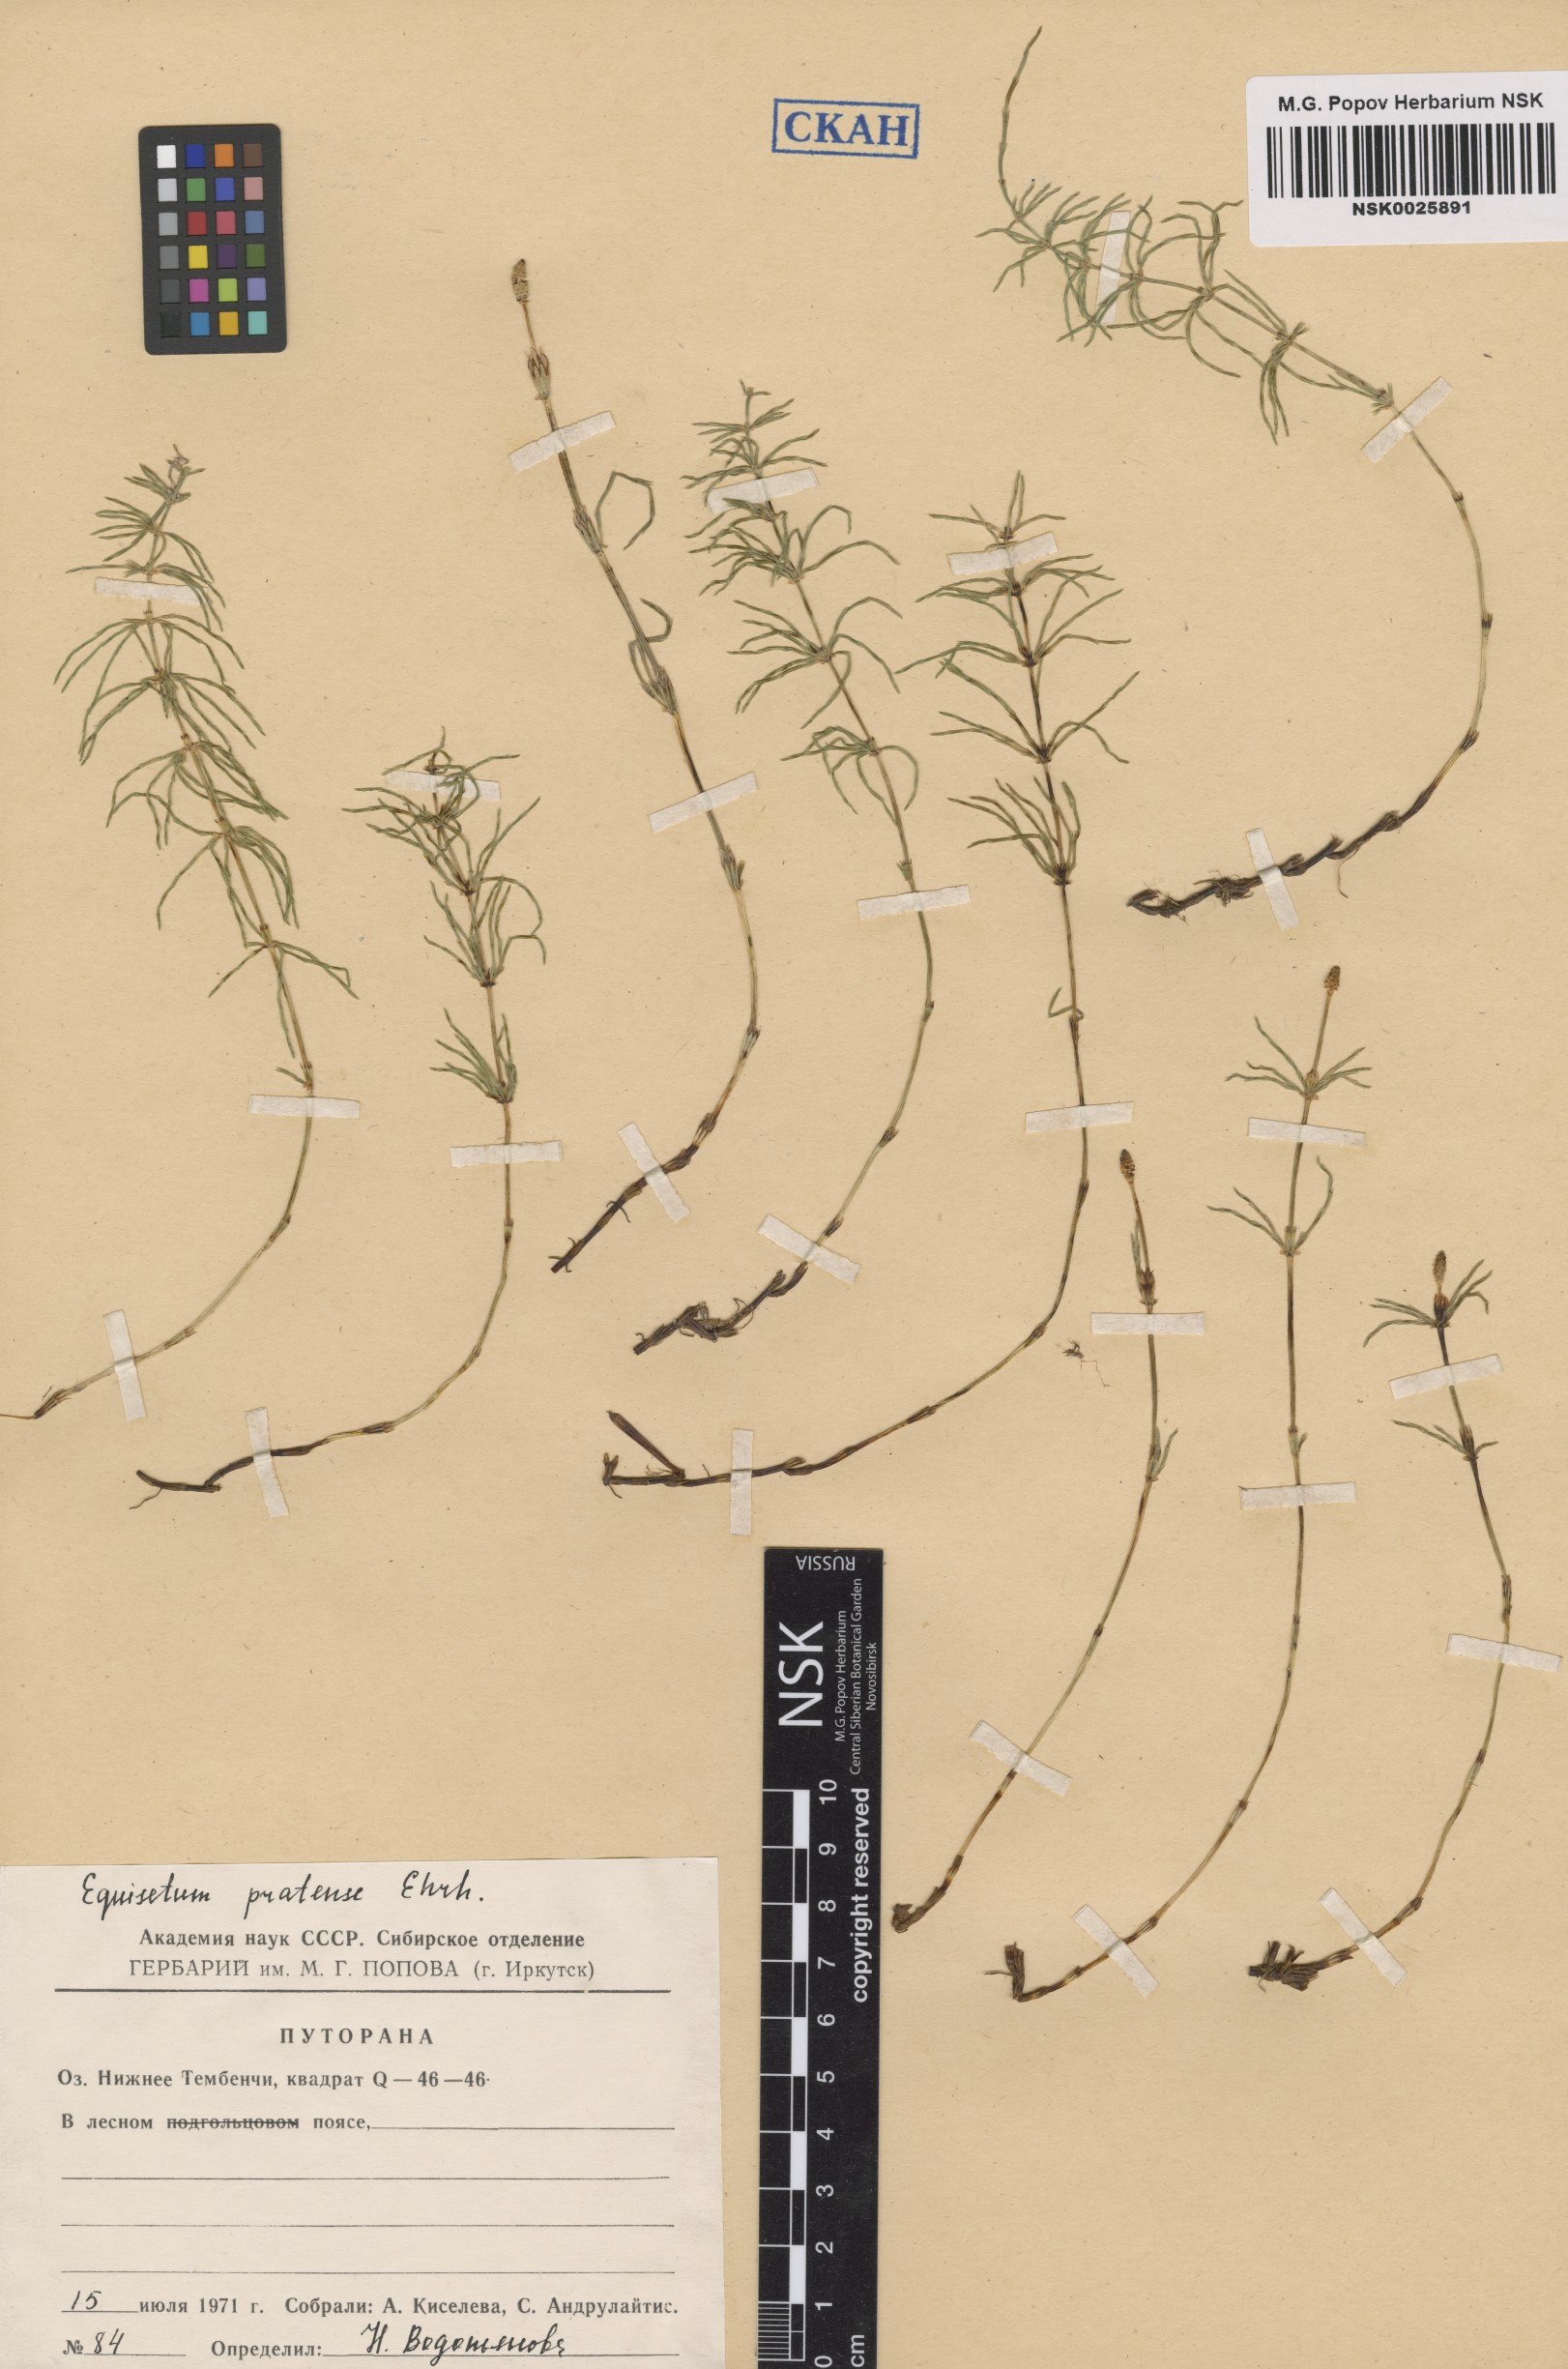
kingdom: Plantae
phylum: Tracheophyta
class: Polypodiopsida
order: Equisetales
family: Equisetaceae
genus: Equisetum
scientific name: Equisetum pratense
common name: Meadow horsetail
